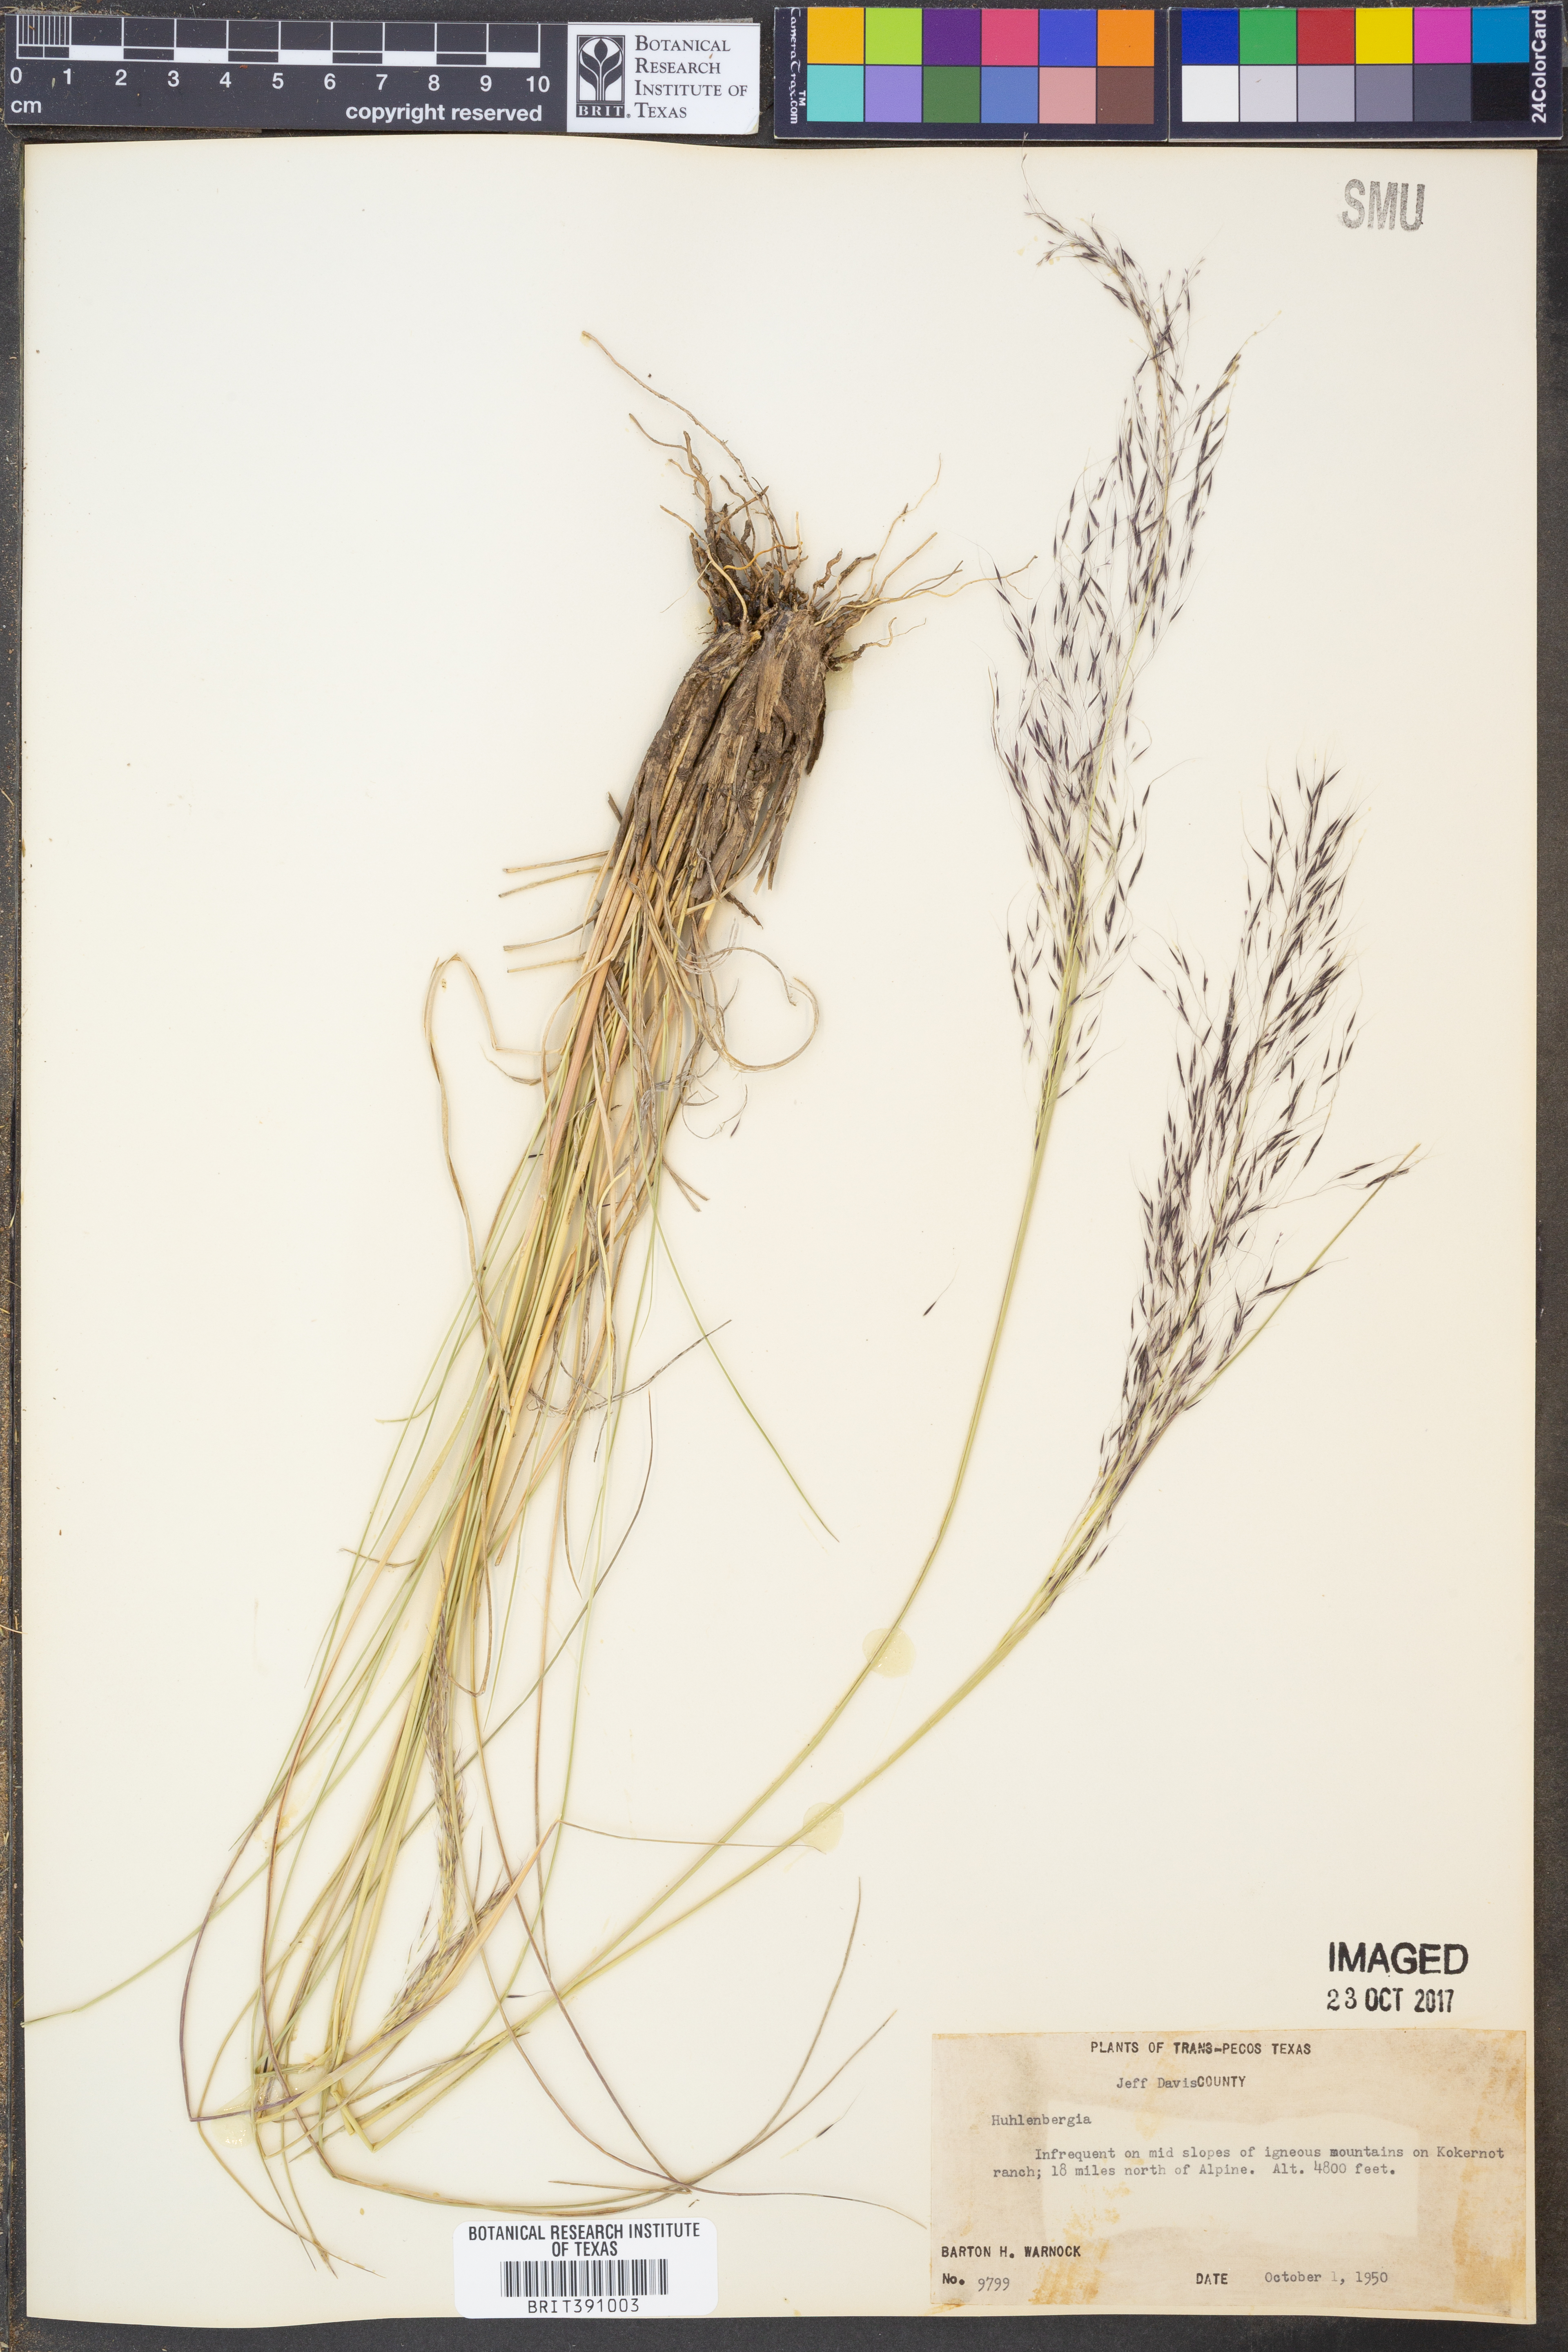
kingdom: Plantae
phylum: Tracheophyta
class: Liliopsida
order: Poales
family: Poaceae
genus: Muhlenbergia
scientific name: Muhlenbergia
